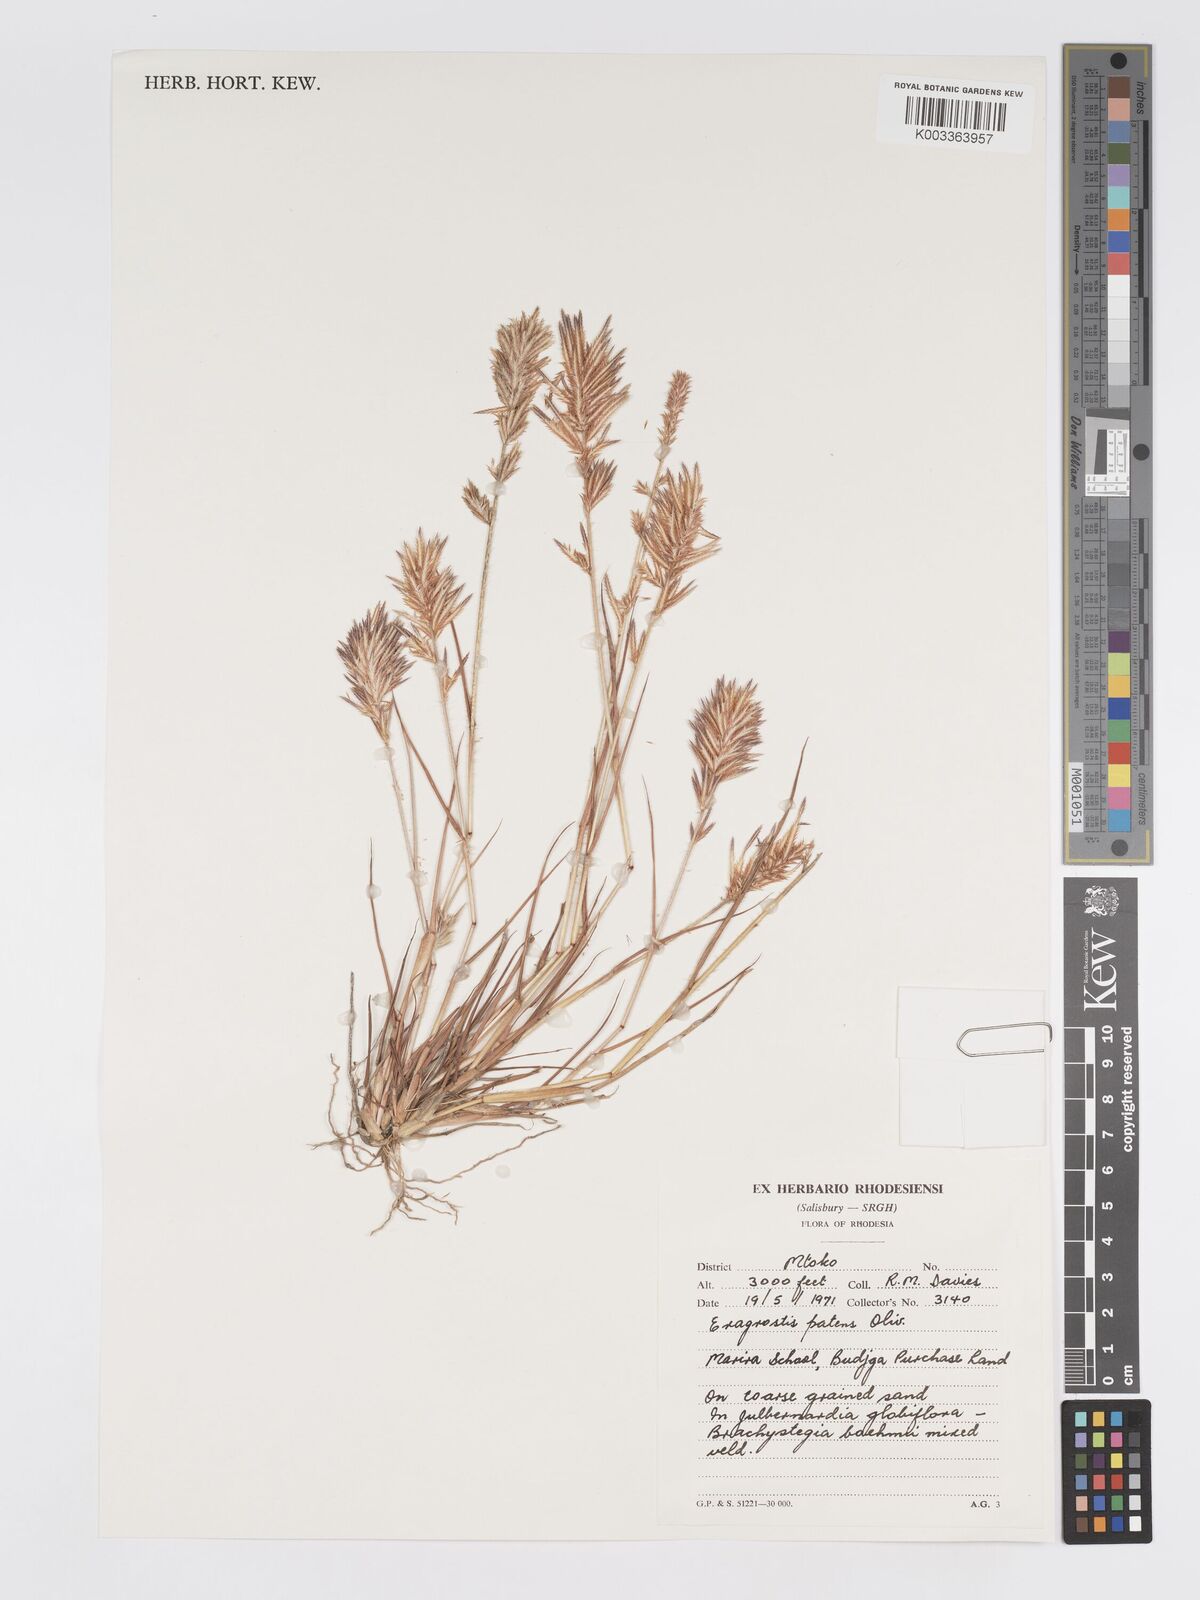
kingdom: Plantae
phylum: Tracheophyta
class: Liliopsida
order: Poales
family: Poaceae
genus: Eragrostis
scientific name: Eragrostis patens
